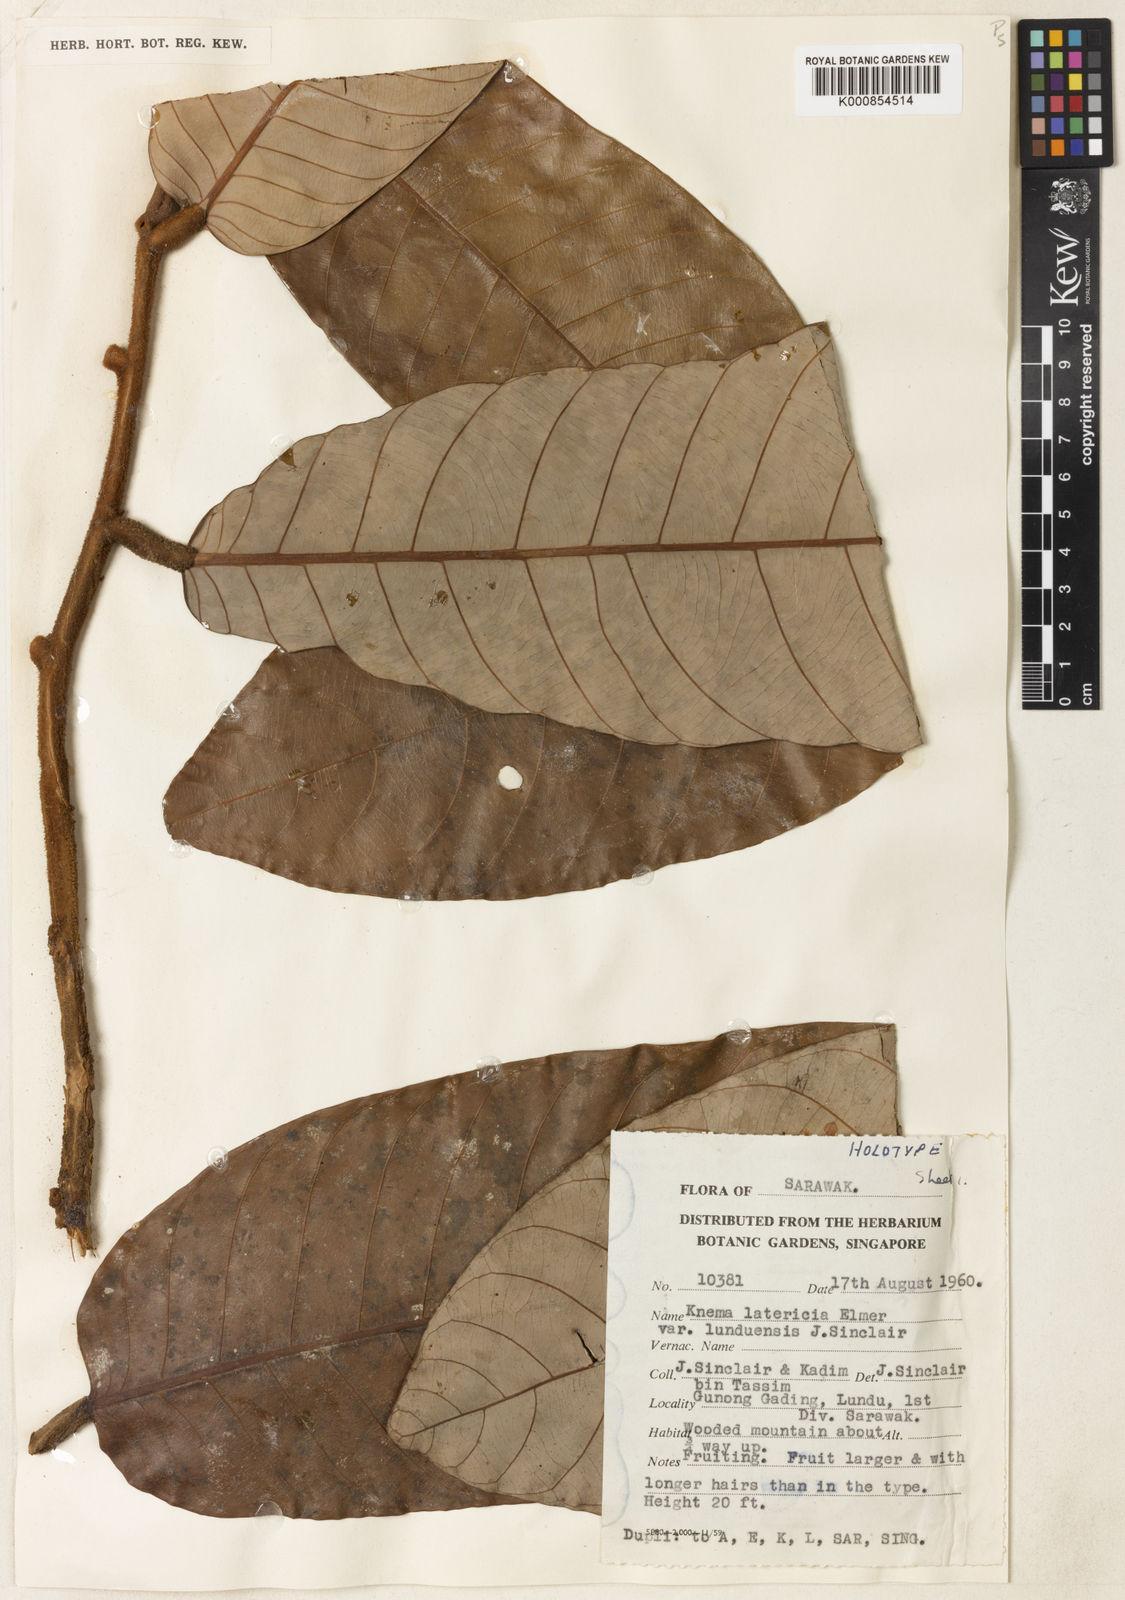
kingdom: Plantae
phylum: Tracheophyta
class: Magnoliopsida
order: Magnoliales
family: Myristicaceae
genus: Knema
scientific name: Knema latericia
